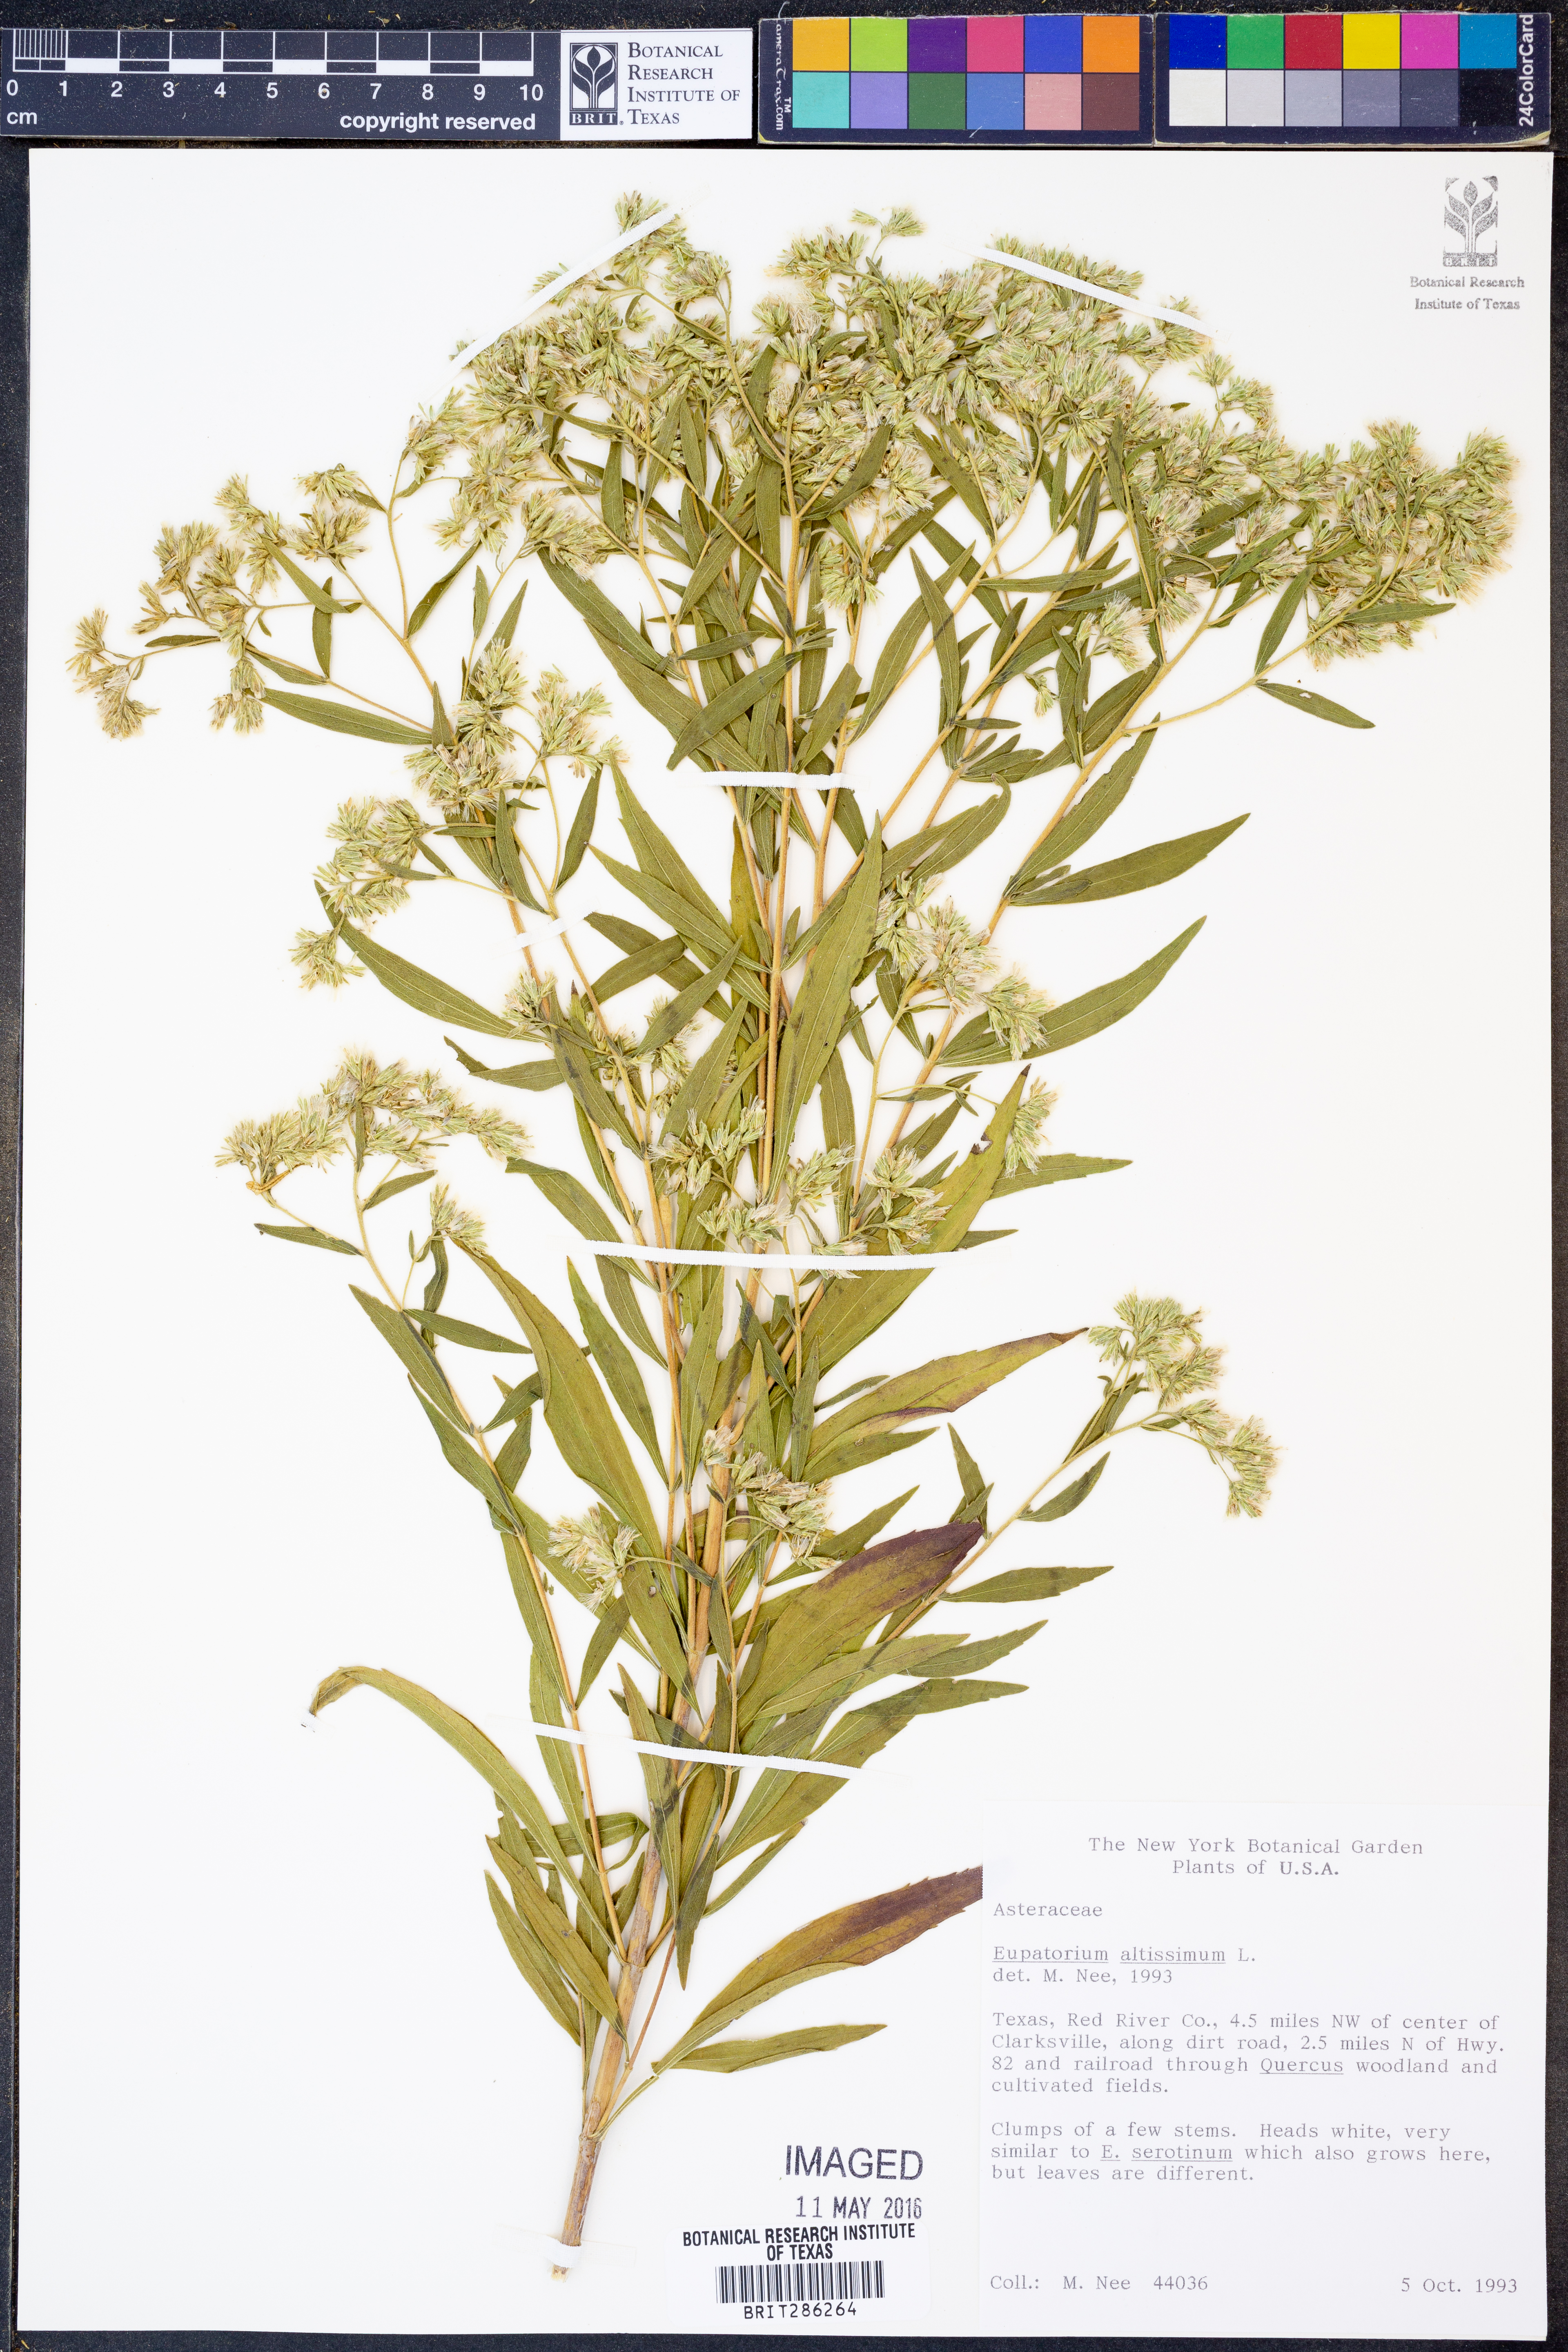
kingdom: Plantae
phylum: Tracheophyta
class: Magnoliopsida
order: Asterales
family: Asteraceae
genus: Eupatorium
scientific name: Eupatorium altissimum
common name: Tall thoroughwort
